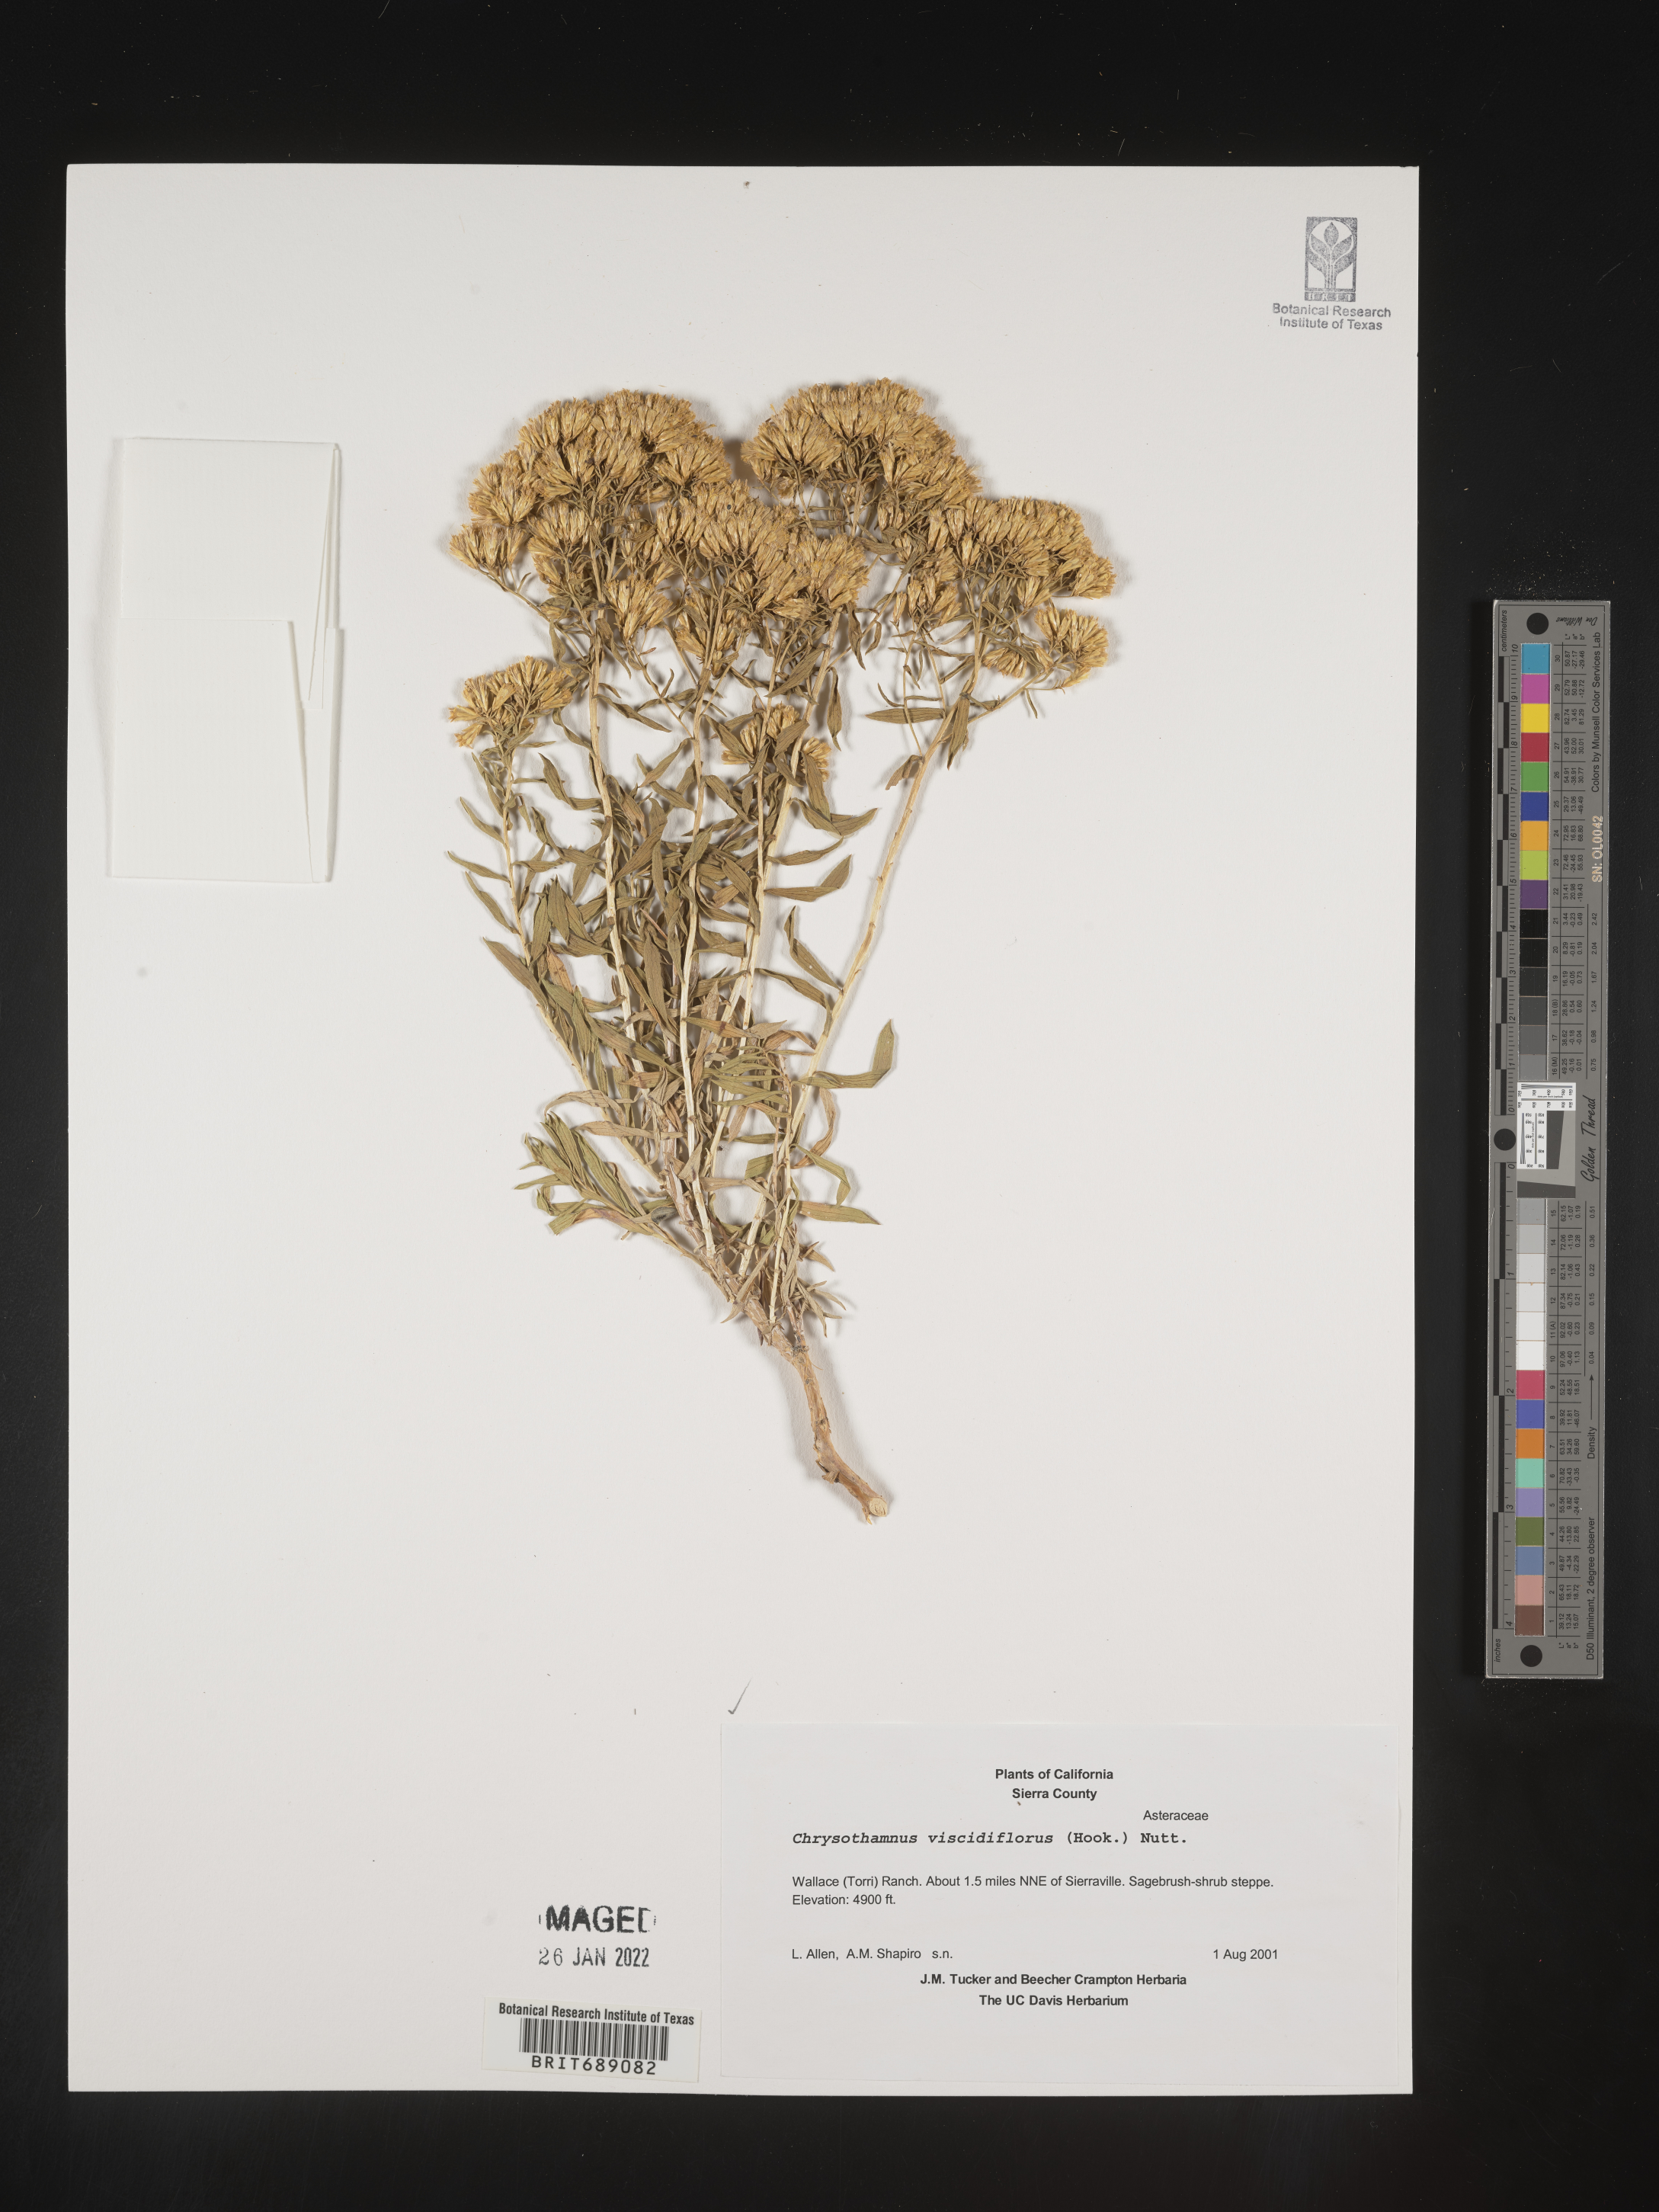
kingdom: Plantae
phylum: Tracheophyta
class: Magnoliopsida
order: Asterales
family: Asteraceae
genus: Chrysothamnus
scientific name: Chrysothamnus viscidiflorus
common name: Yellow rabbitbrush
